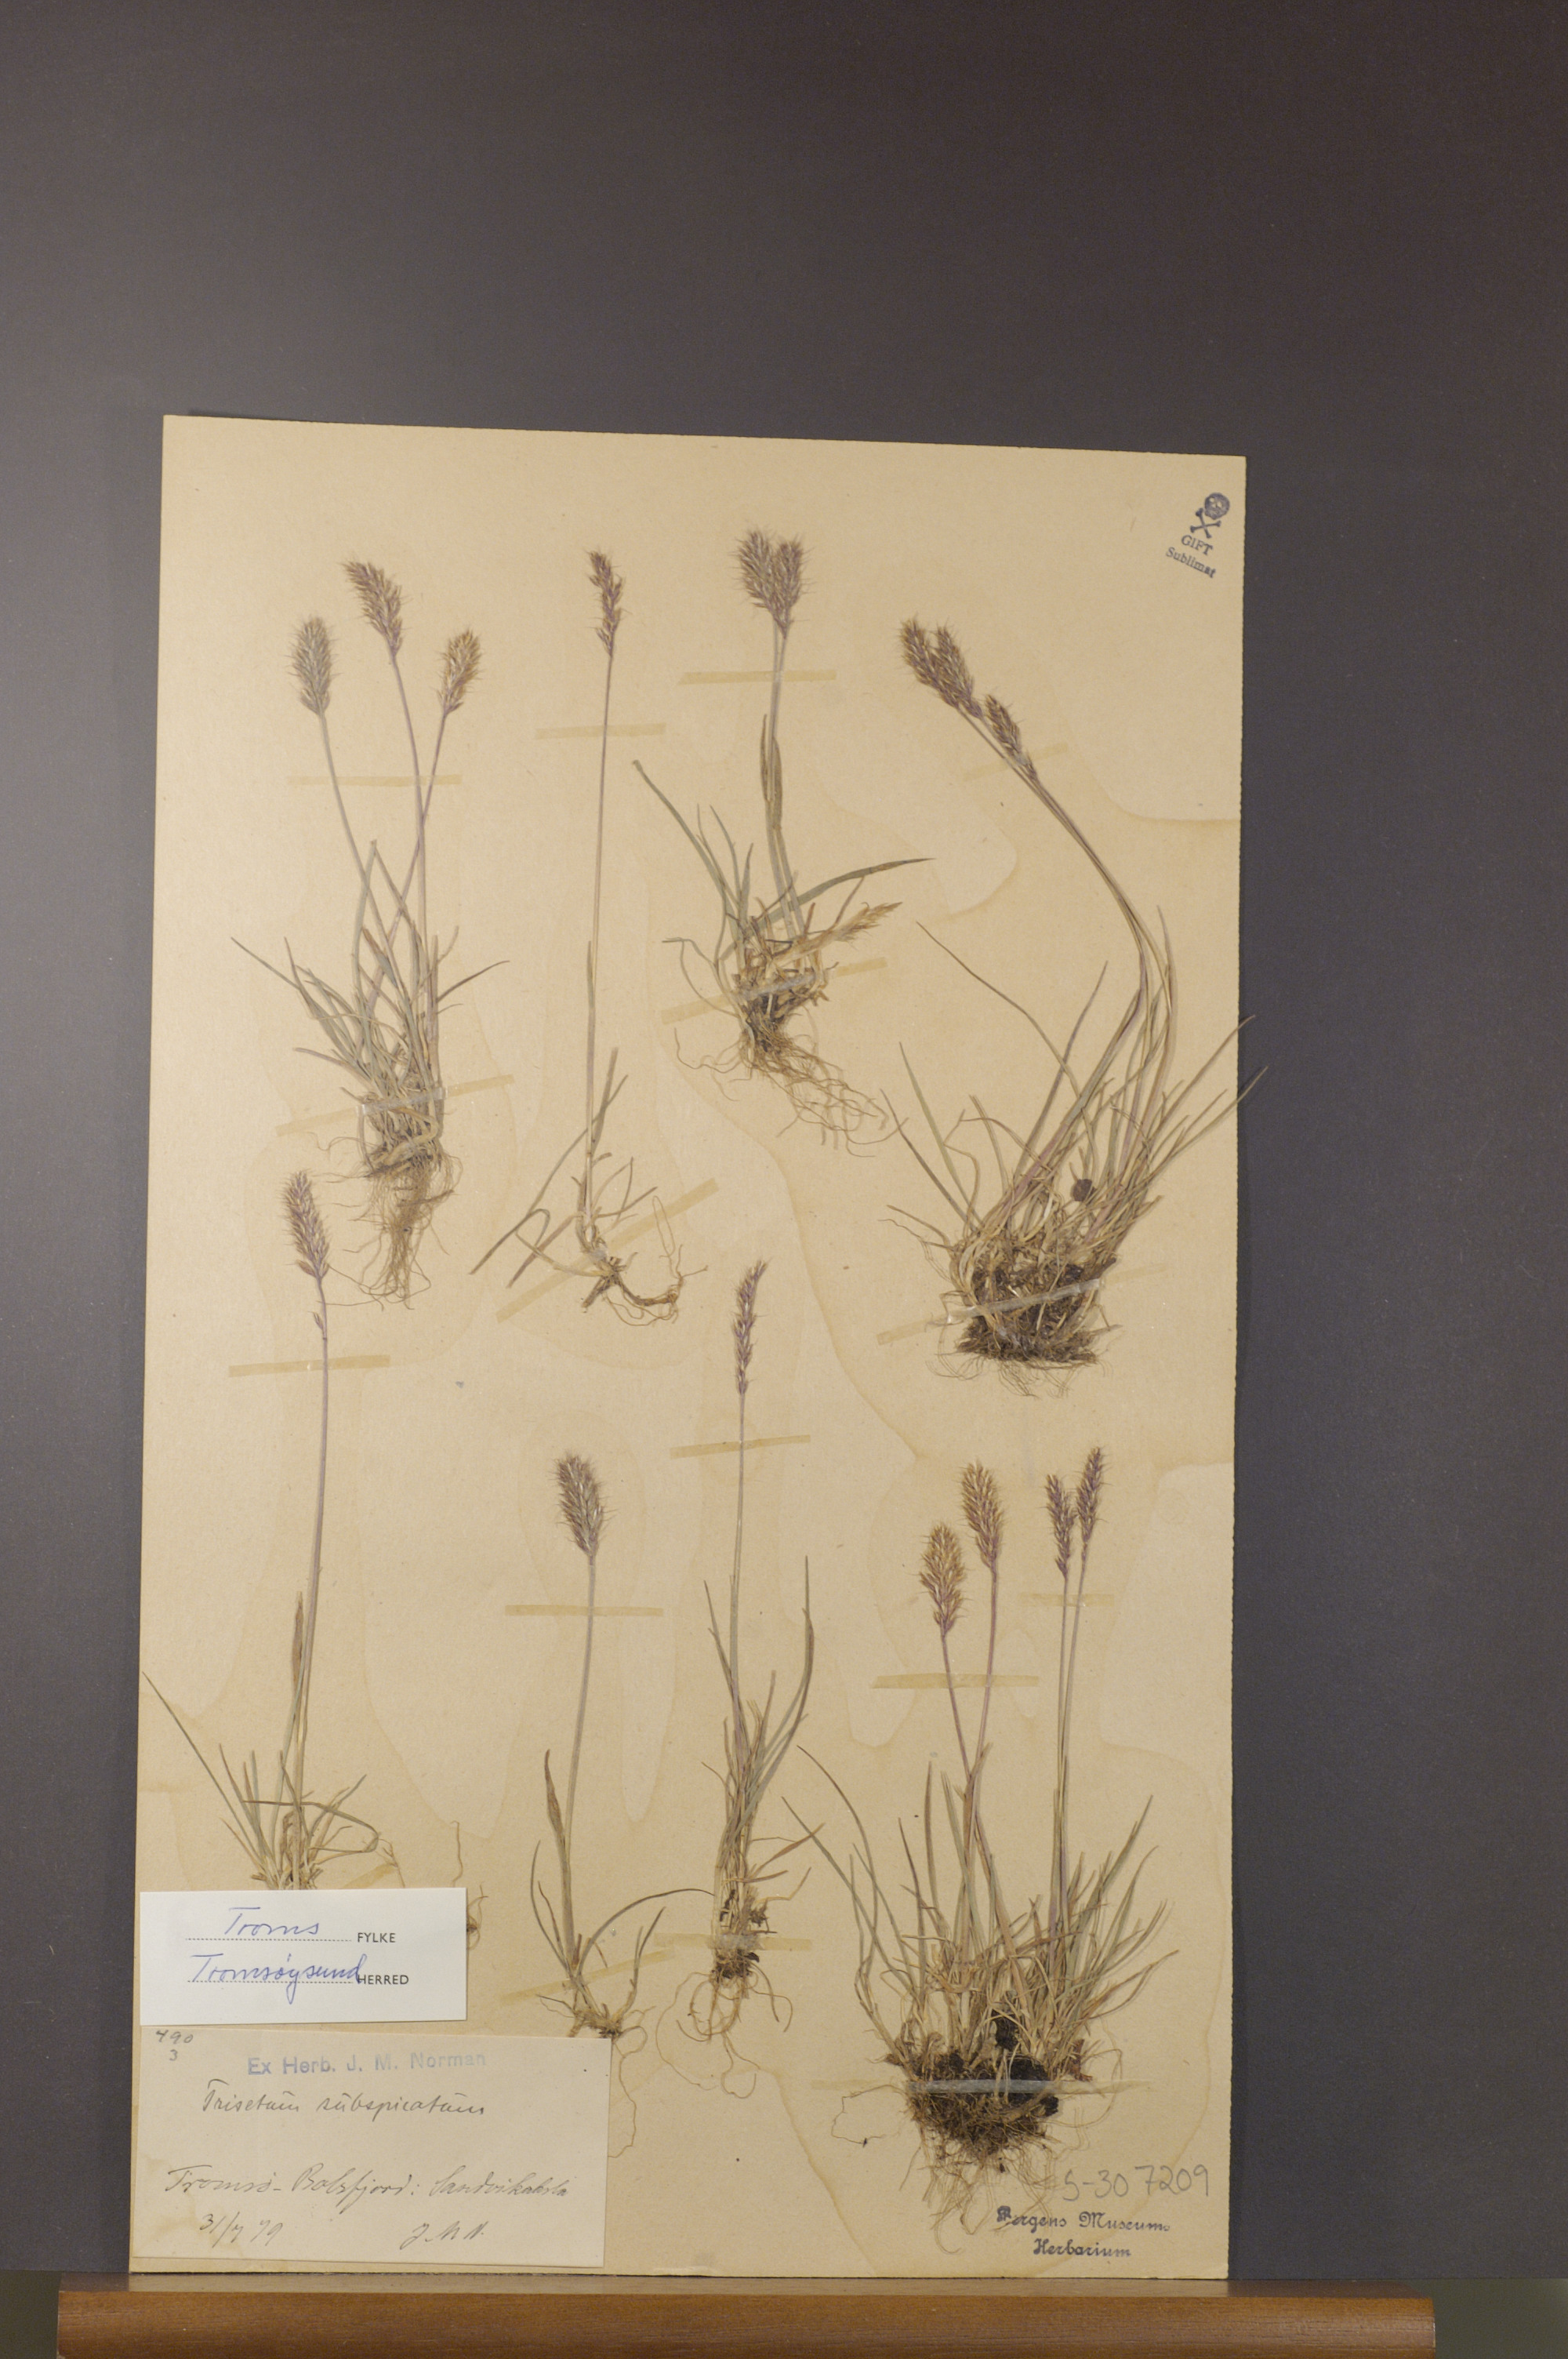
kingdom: Plantae
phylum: Tracheophyta
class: Liliopsida
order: Poales
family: Poaceae
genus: Koeleria
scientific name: Koeleria spicata
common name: Mountain trisetum
